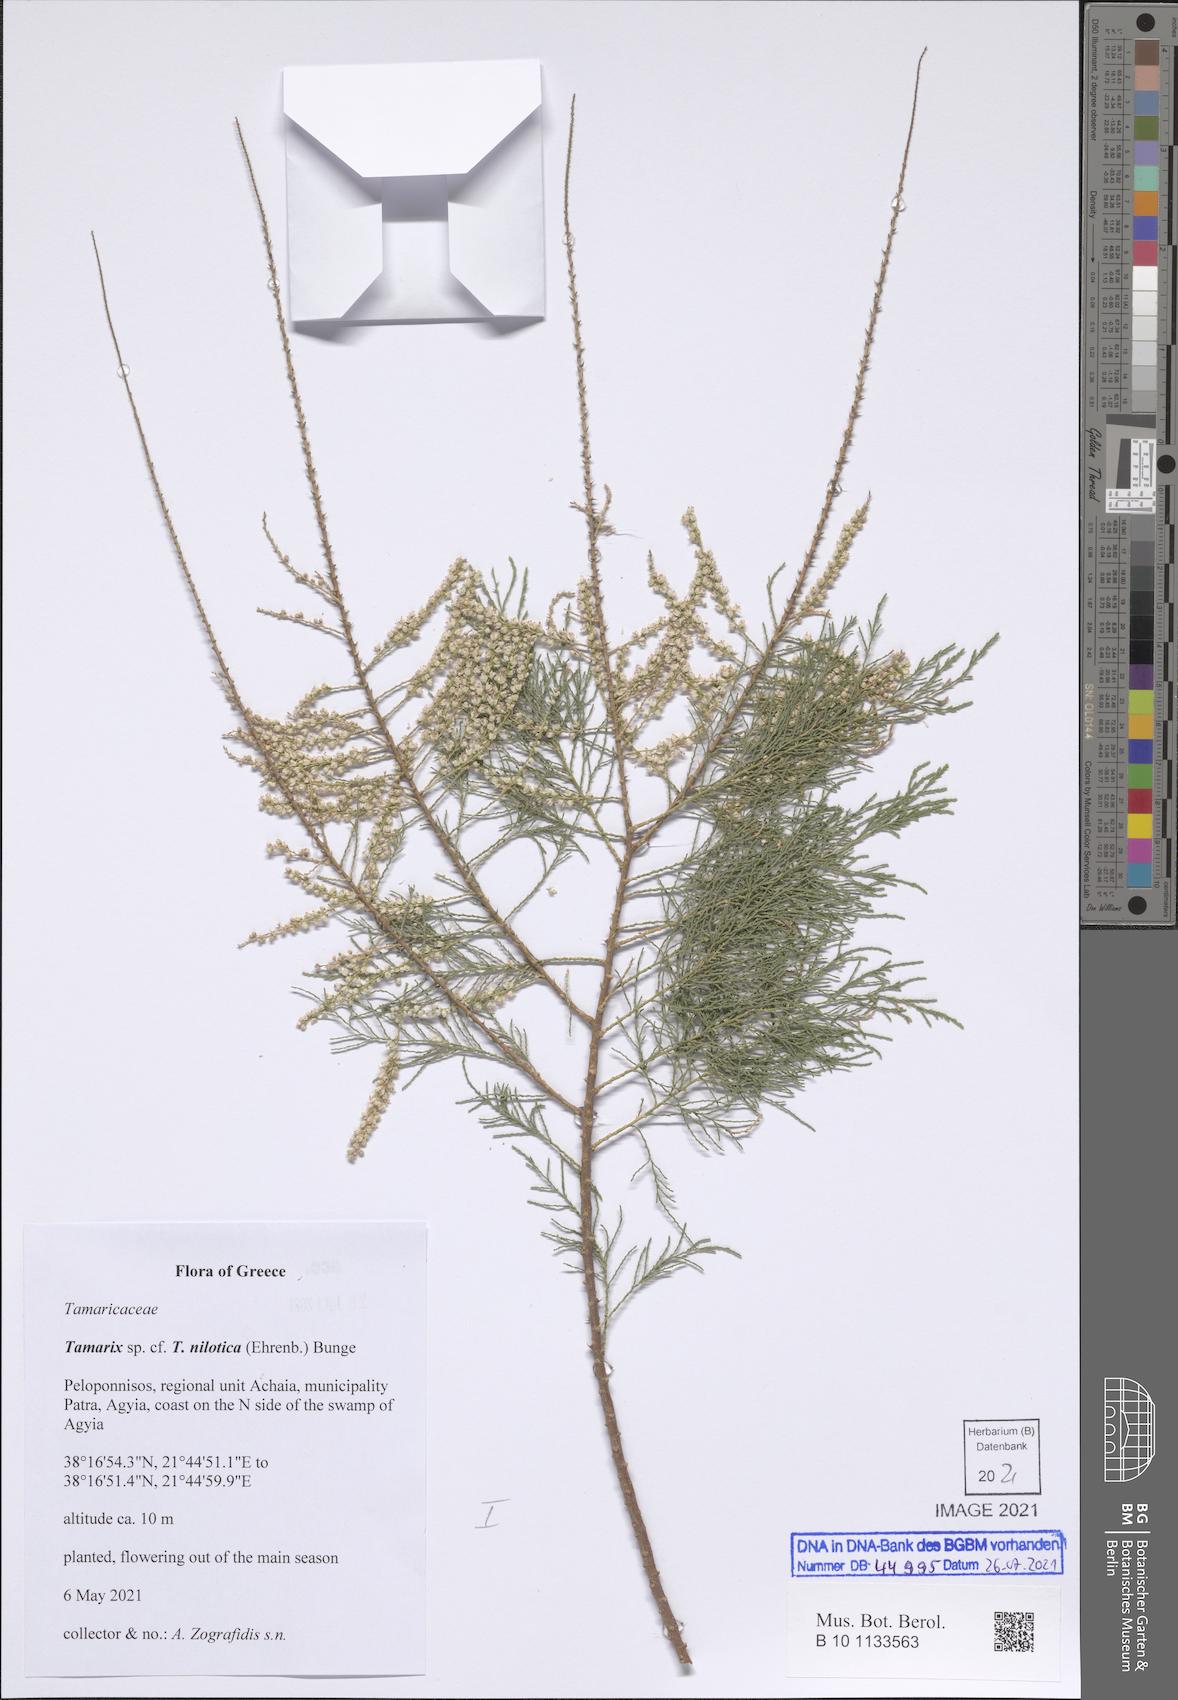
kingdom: Plantae
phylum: Tracheophyta
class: Magnoliopsida
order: Caryophyllales
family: Tamaricaceae
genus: Tamarix
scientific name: Tamarix nilotica
